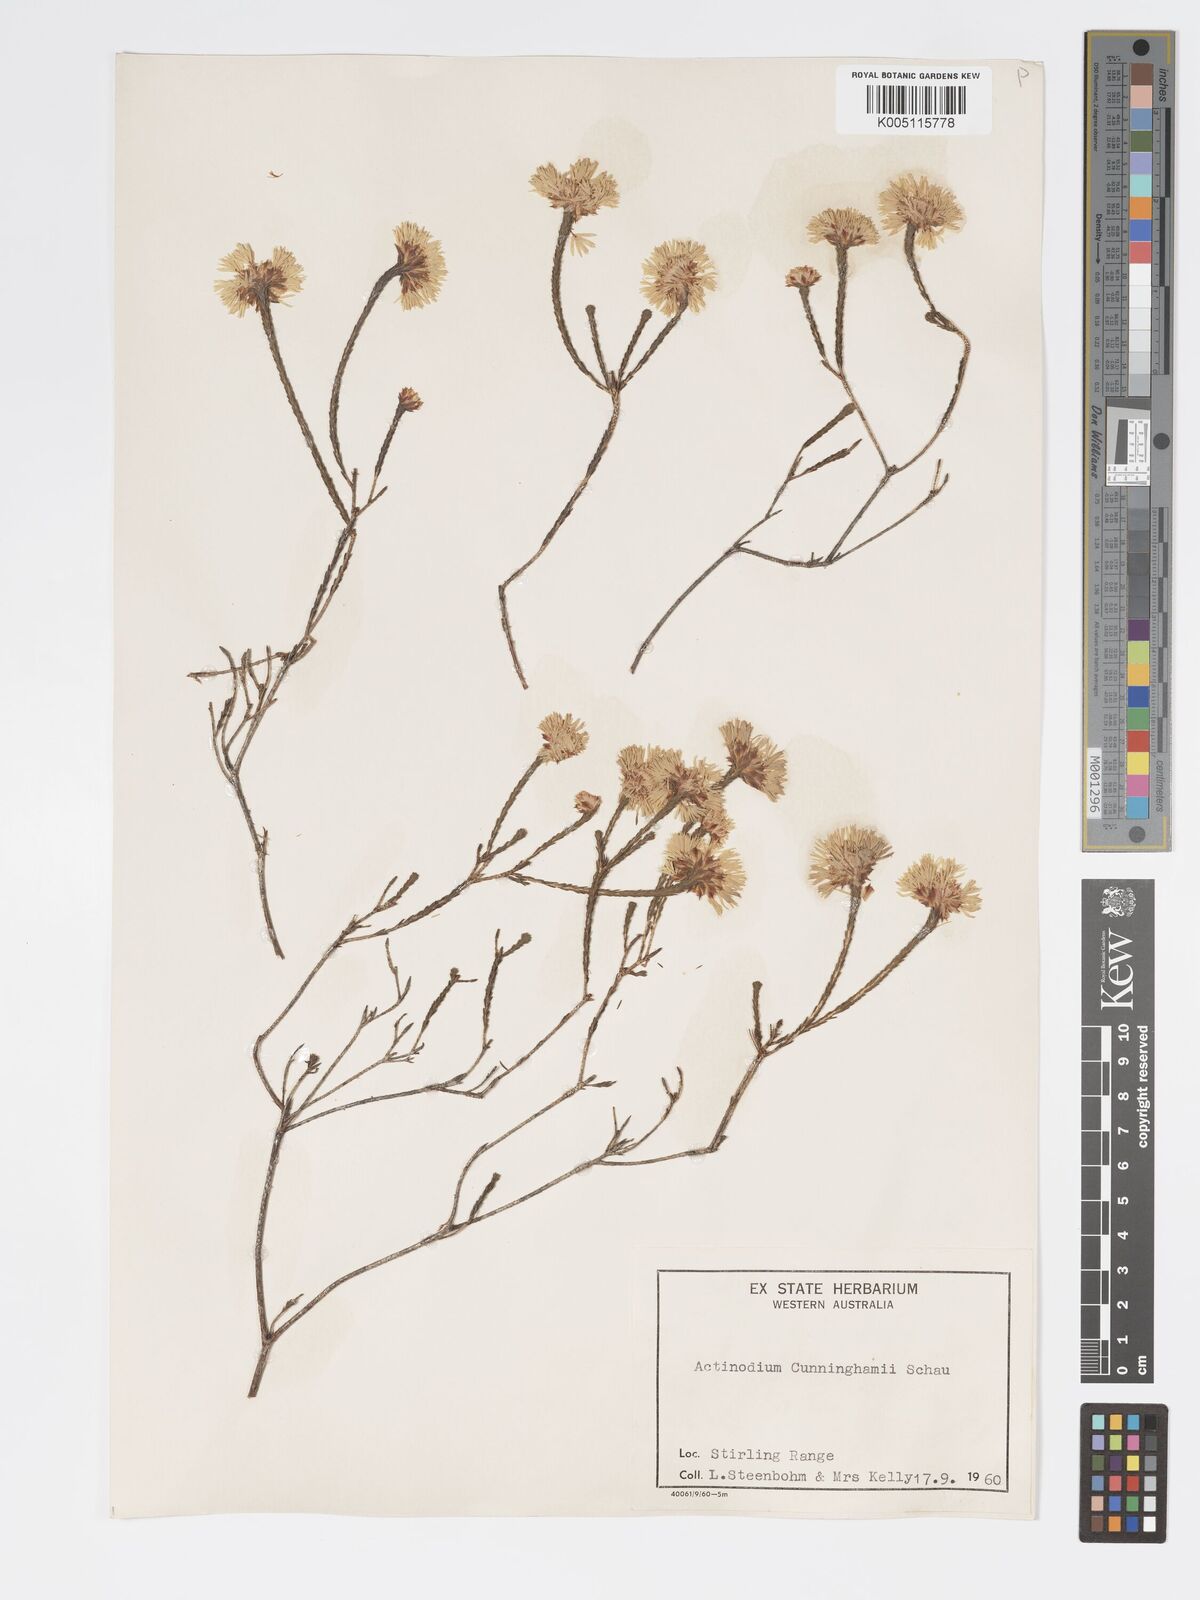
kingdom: Plantae
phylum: Tracheophyta
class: Magnoliopsida
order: Myrtales
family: Myrtaceae
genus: Actinodium
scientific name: Actinodium cunninghamii
